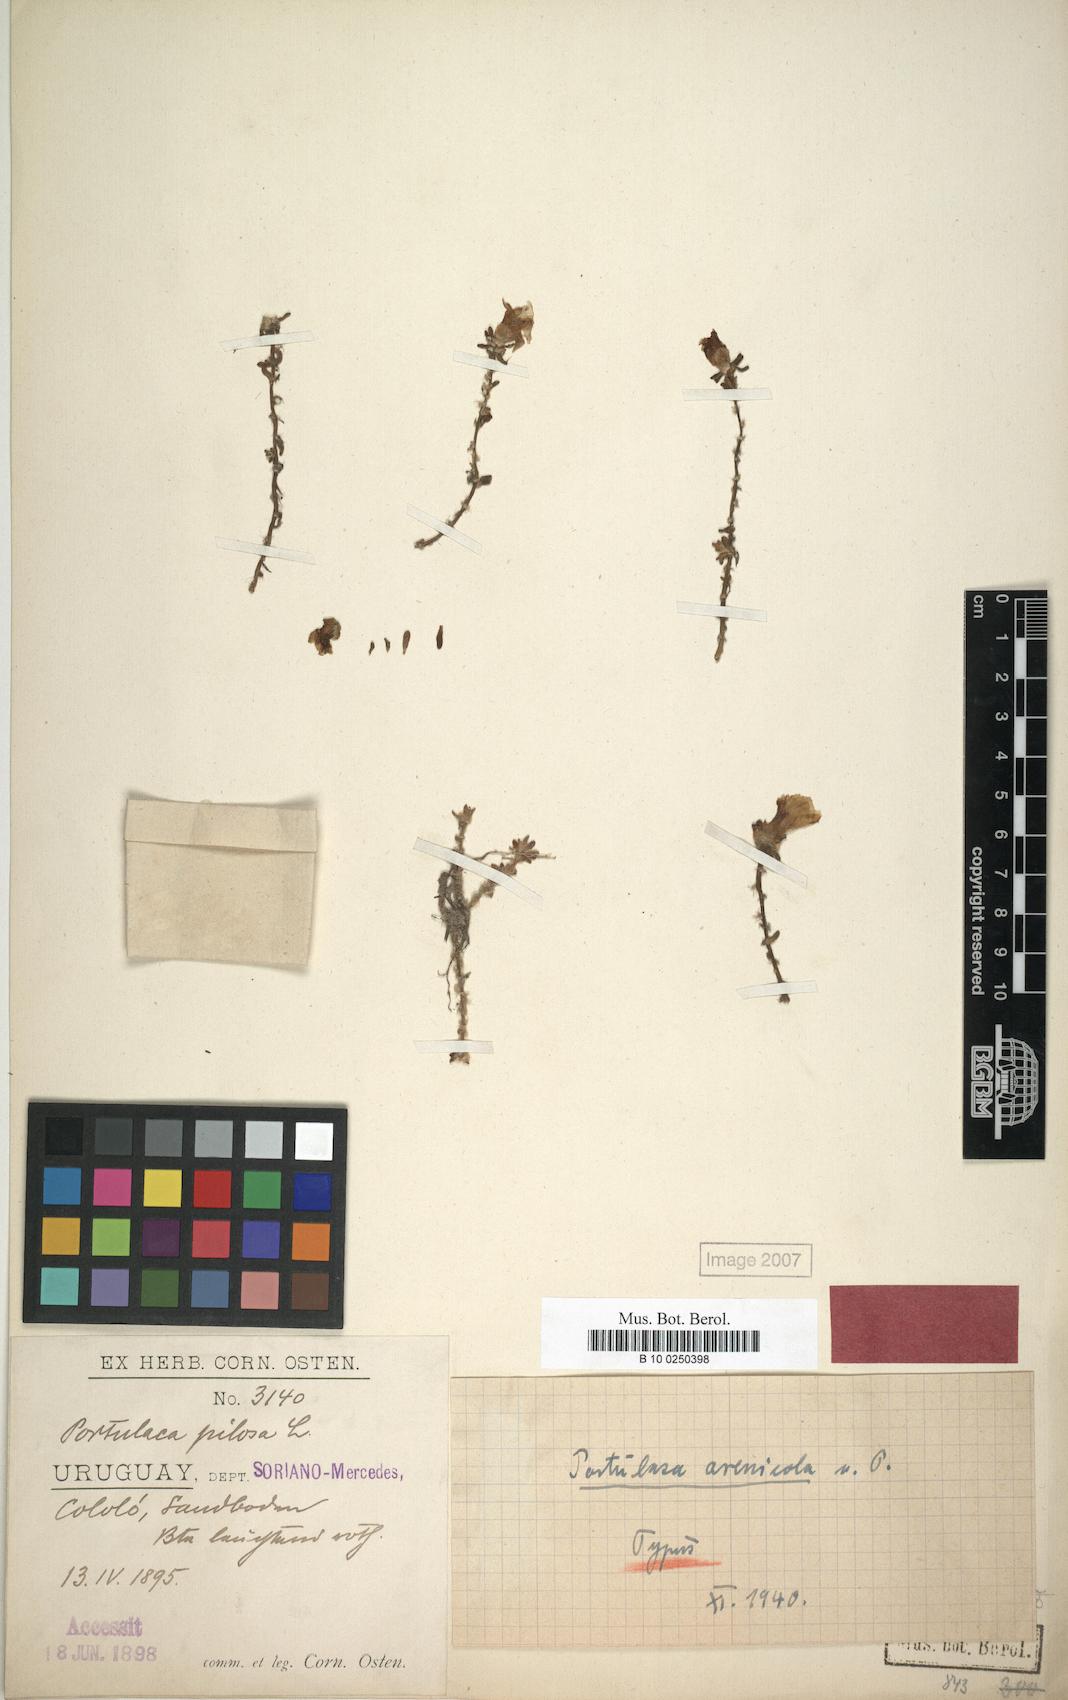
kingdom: Plantae
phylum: Tracheophyta
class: Magnoliopsida
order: Caryophyllales
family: Portulacaceae
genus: Portulaca
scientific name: Portulaca gilliesii
